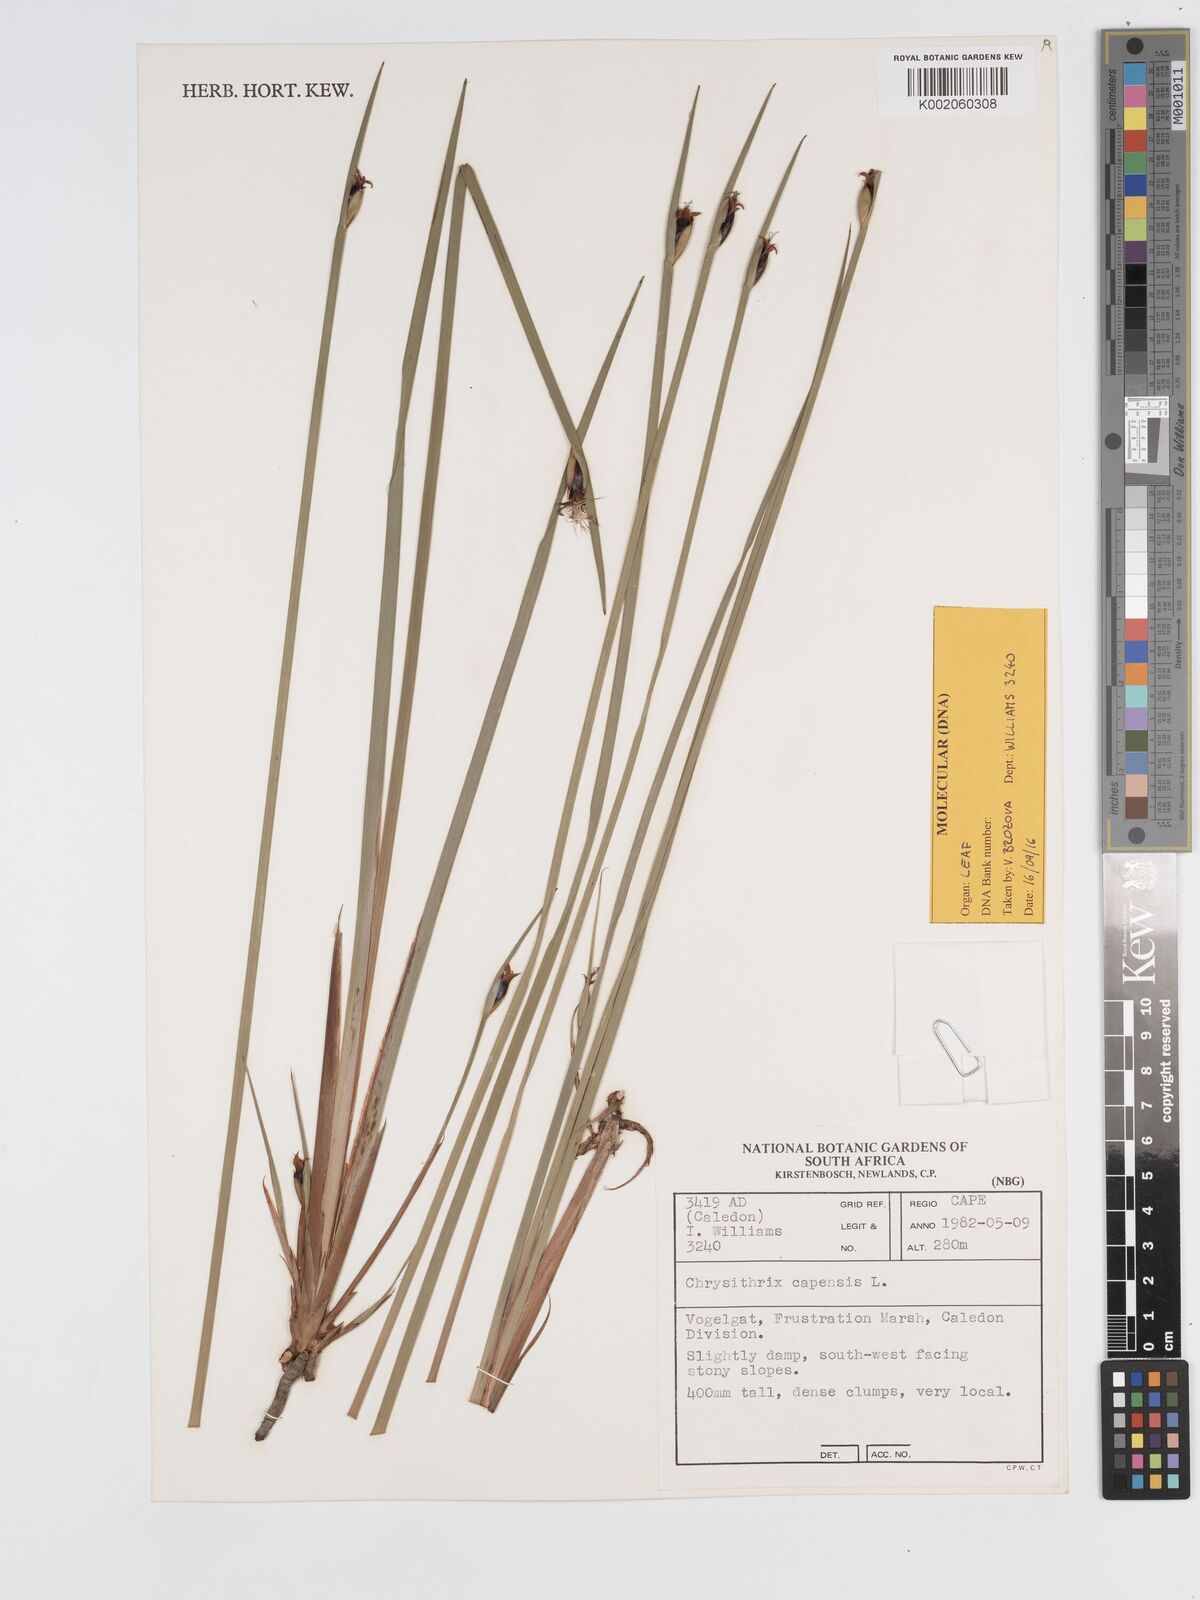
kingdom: Plantae
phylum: Tracheophyta
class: Liliopsida
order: Poales
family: Cyperaceae
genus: Chrysitrix
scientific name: Chrysitrix capensis
